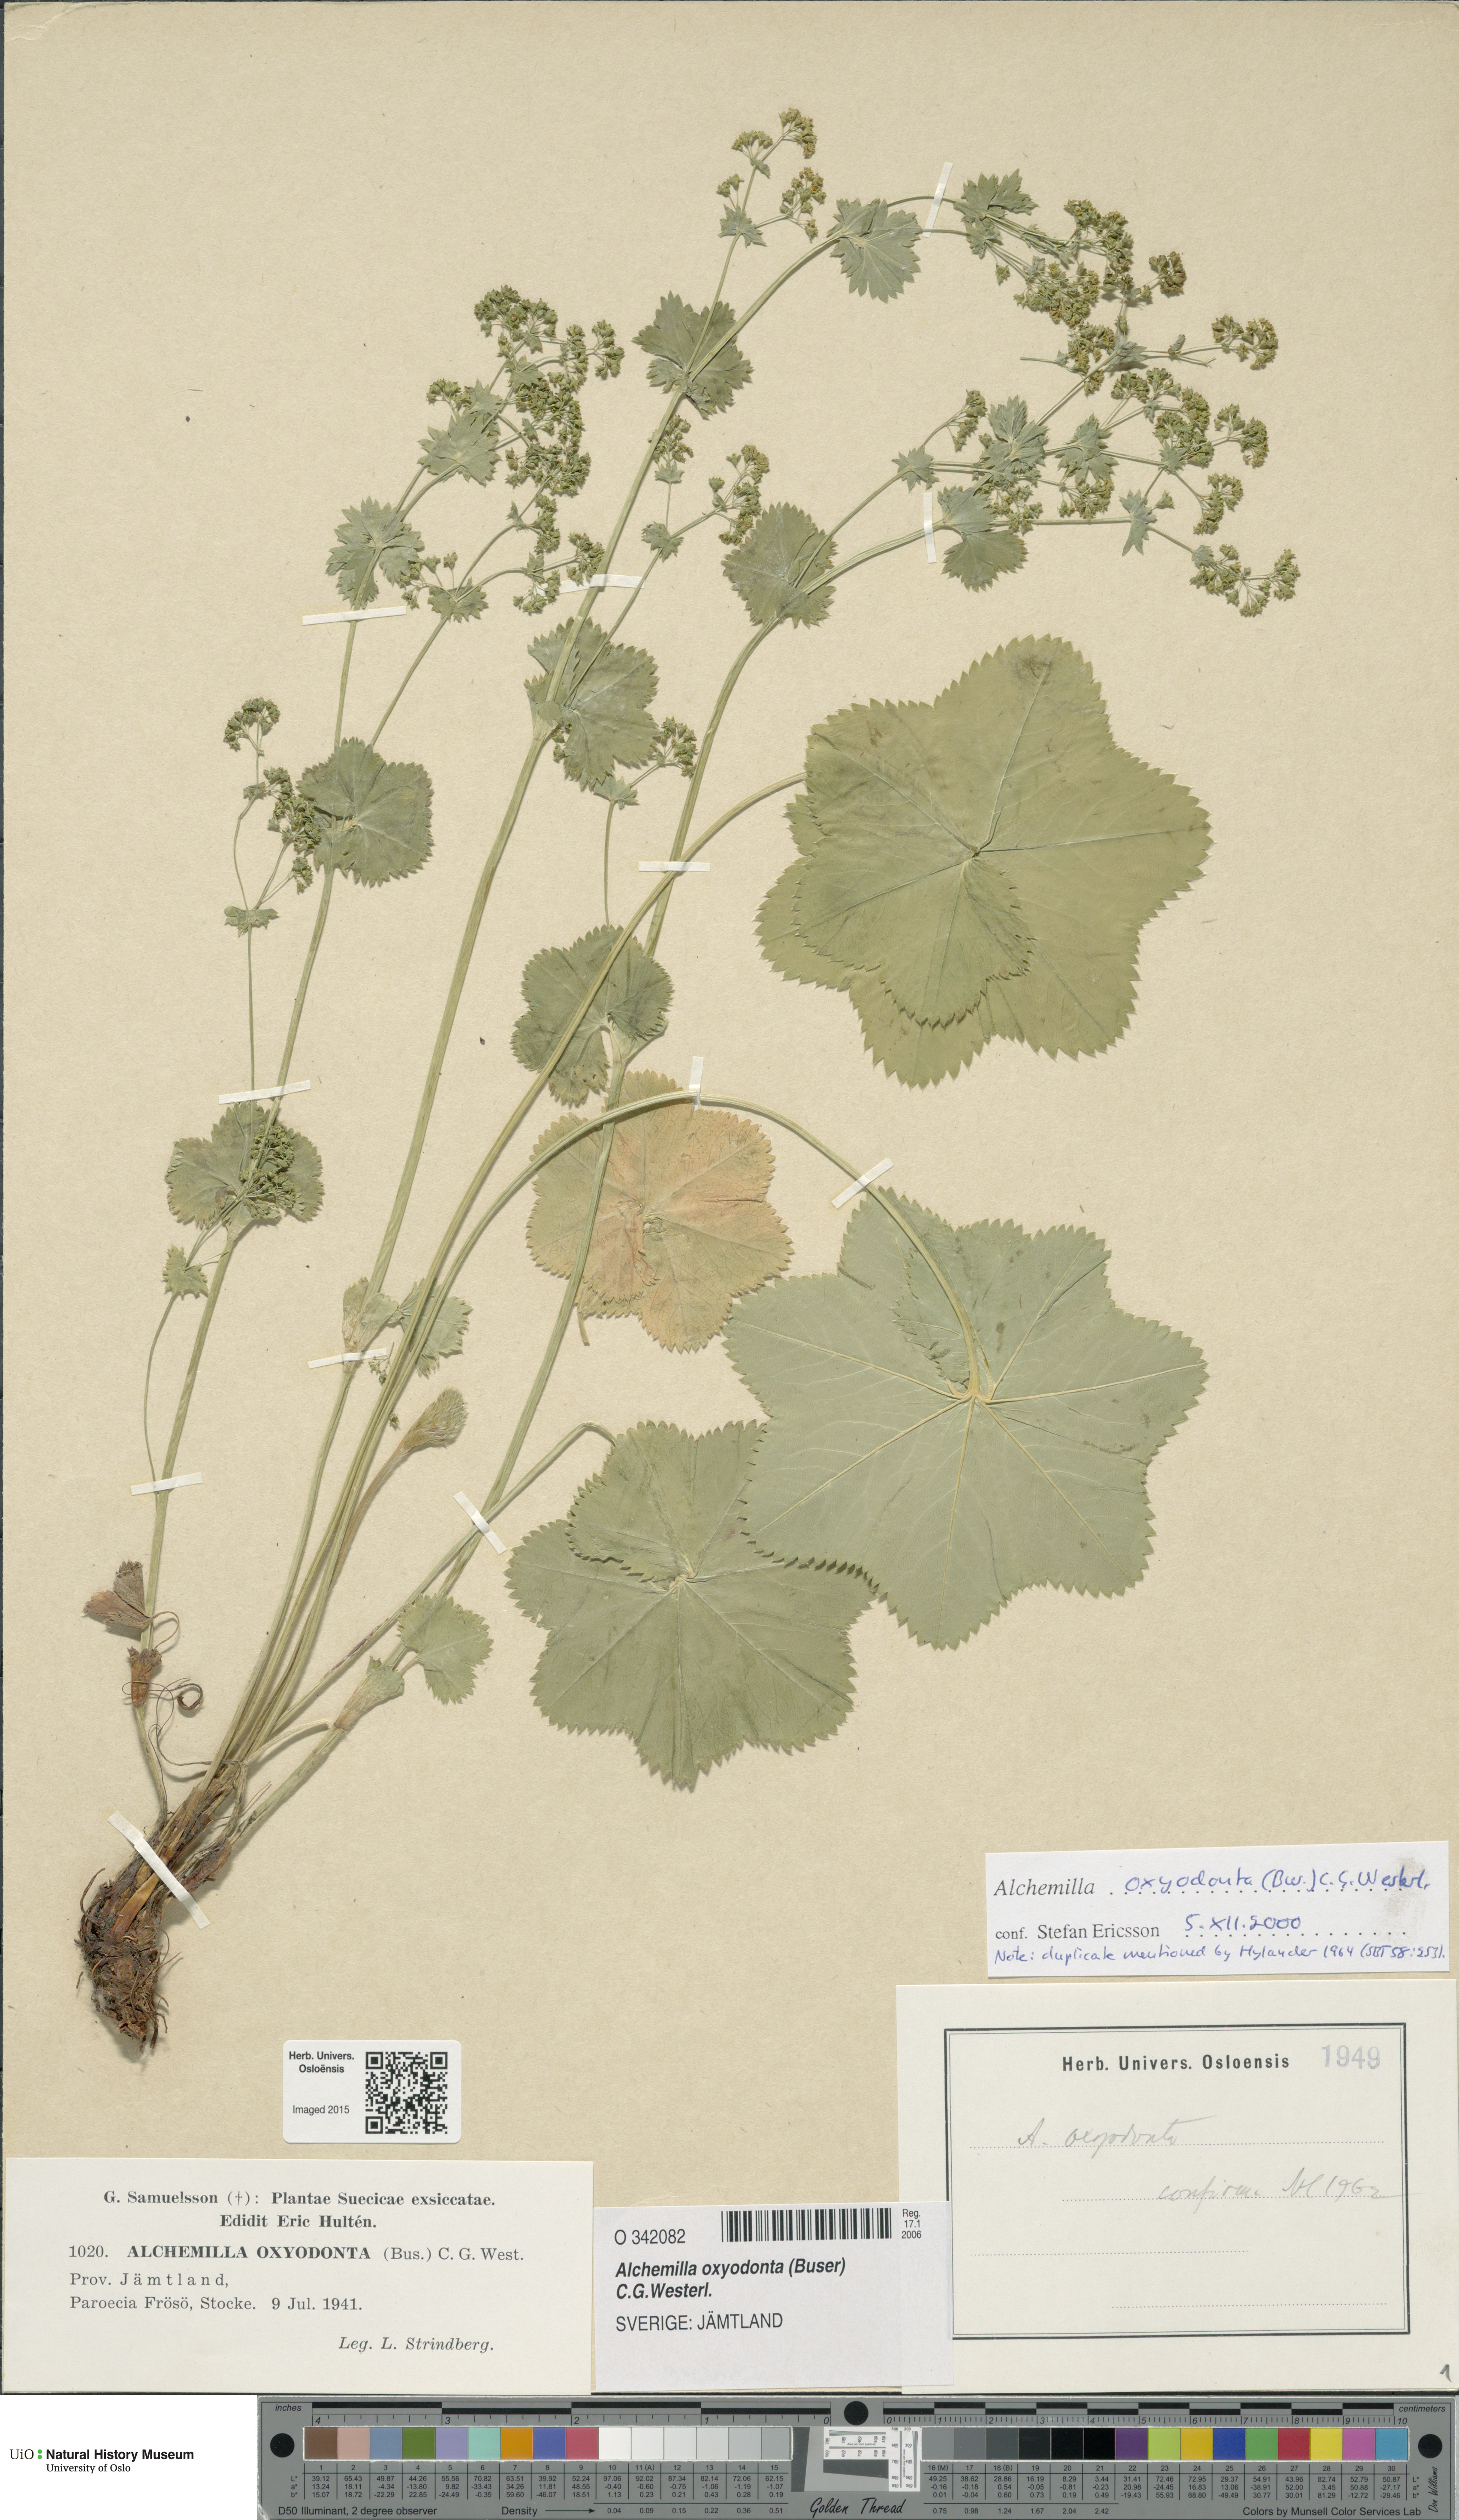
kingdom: Plantae
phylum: Tracheophyta
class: Magnoliopsida
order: Rosales
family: Rosaceae
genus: Alchemilla
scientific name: Alchemilla oxyodonta
